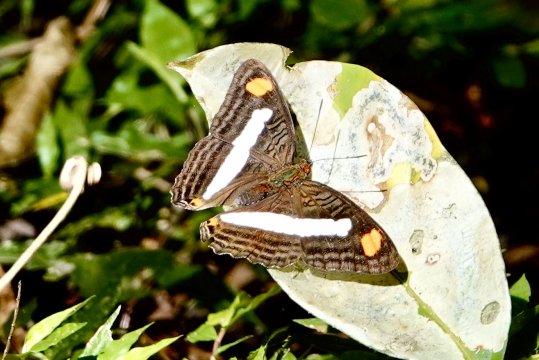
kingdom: Animalia
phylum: Arthropoda
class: Insecta
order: Lepidoptera
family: Nymphalidae
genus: Limenitis
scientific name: Limenitis Adelpha basiloides
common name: Spot-celled Sister
